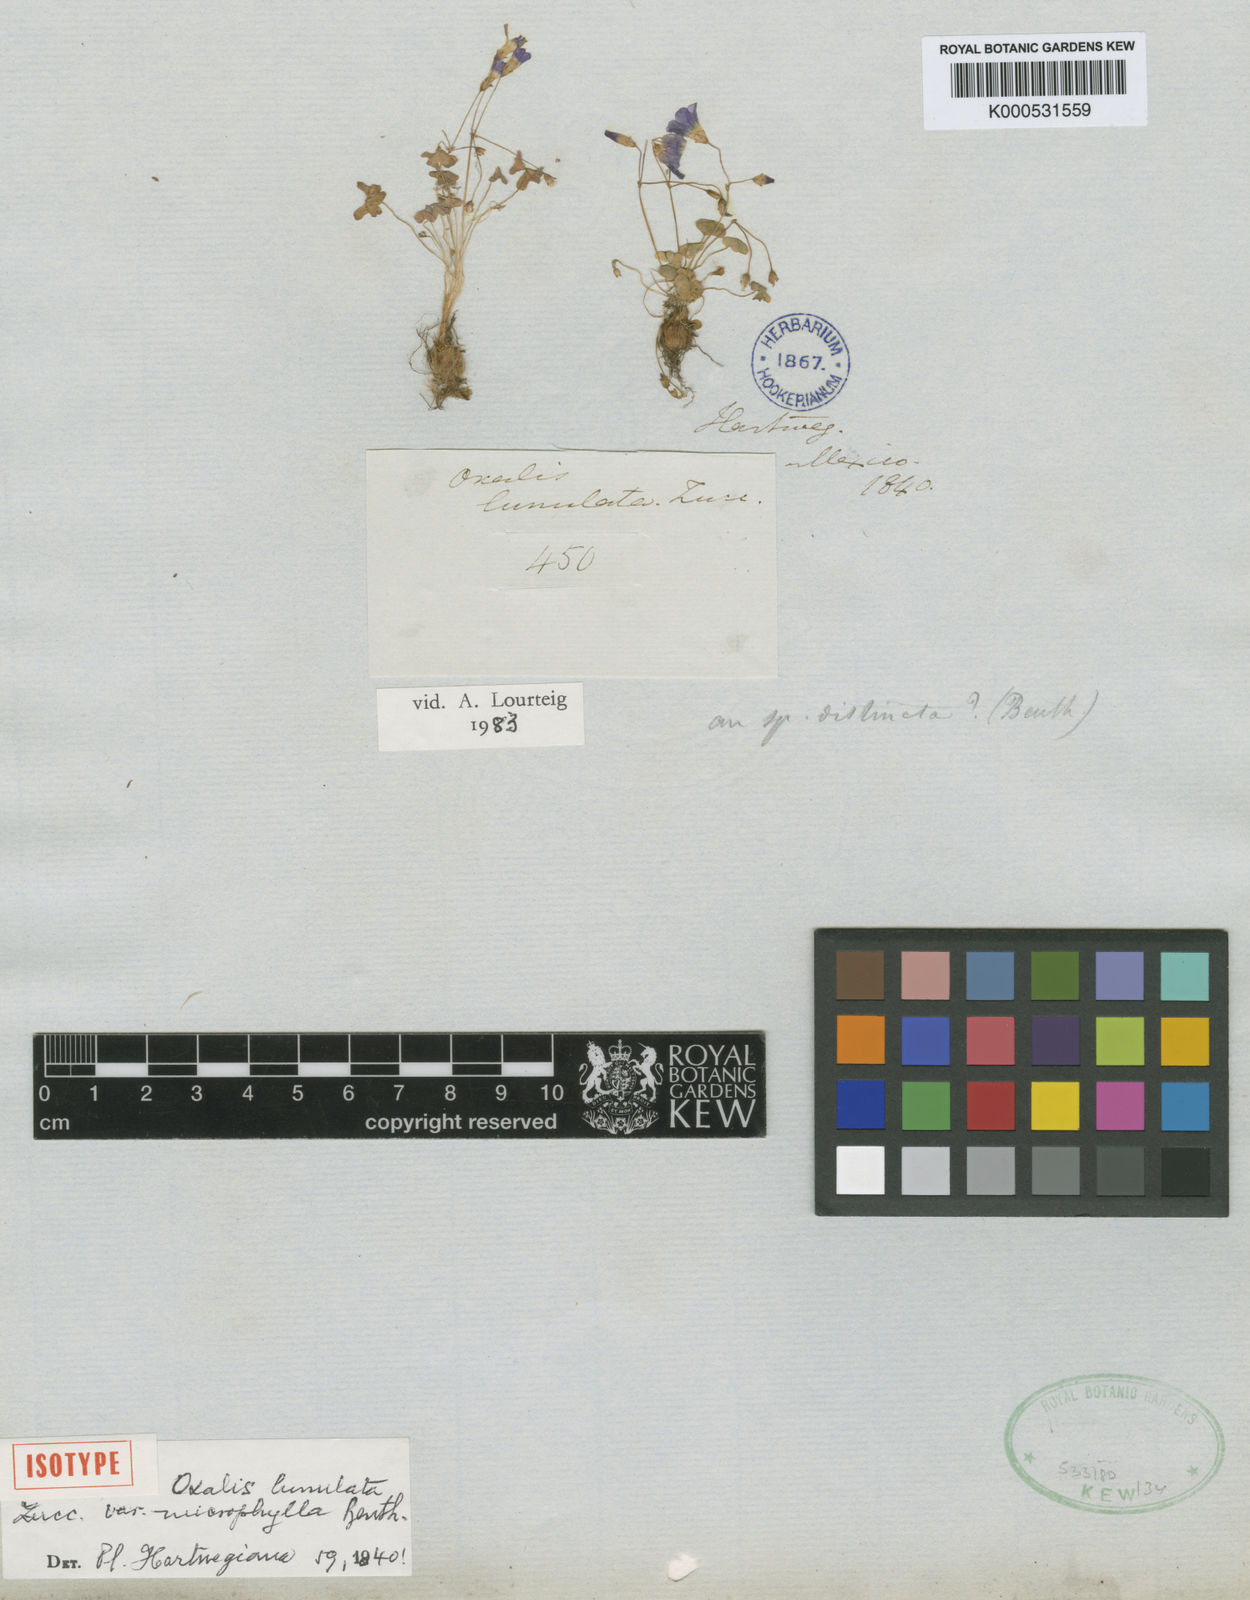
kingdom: Plantae
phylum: Tracheophyta
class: Magnoliopsida
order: Oxalidales
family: Oxalidaceae
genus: Oxalis
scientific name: Oxalis lunulata
